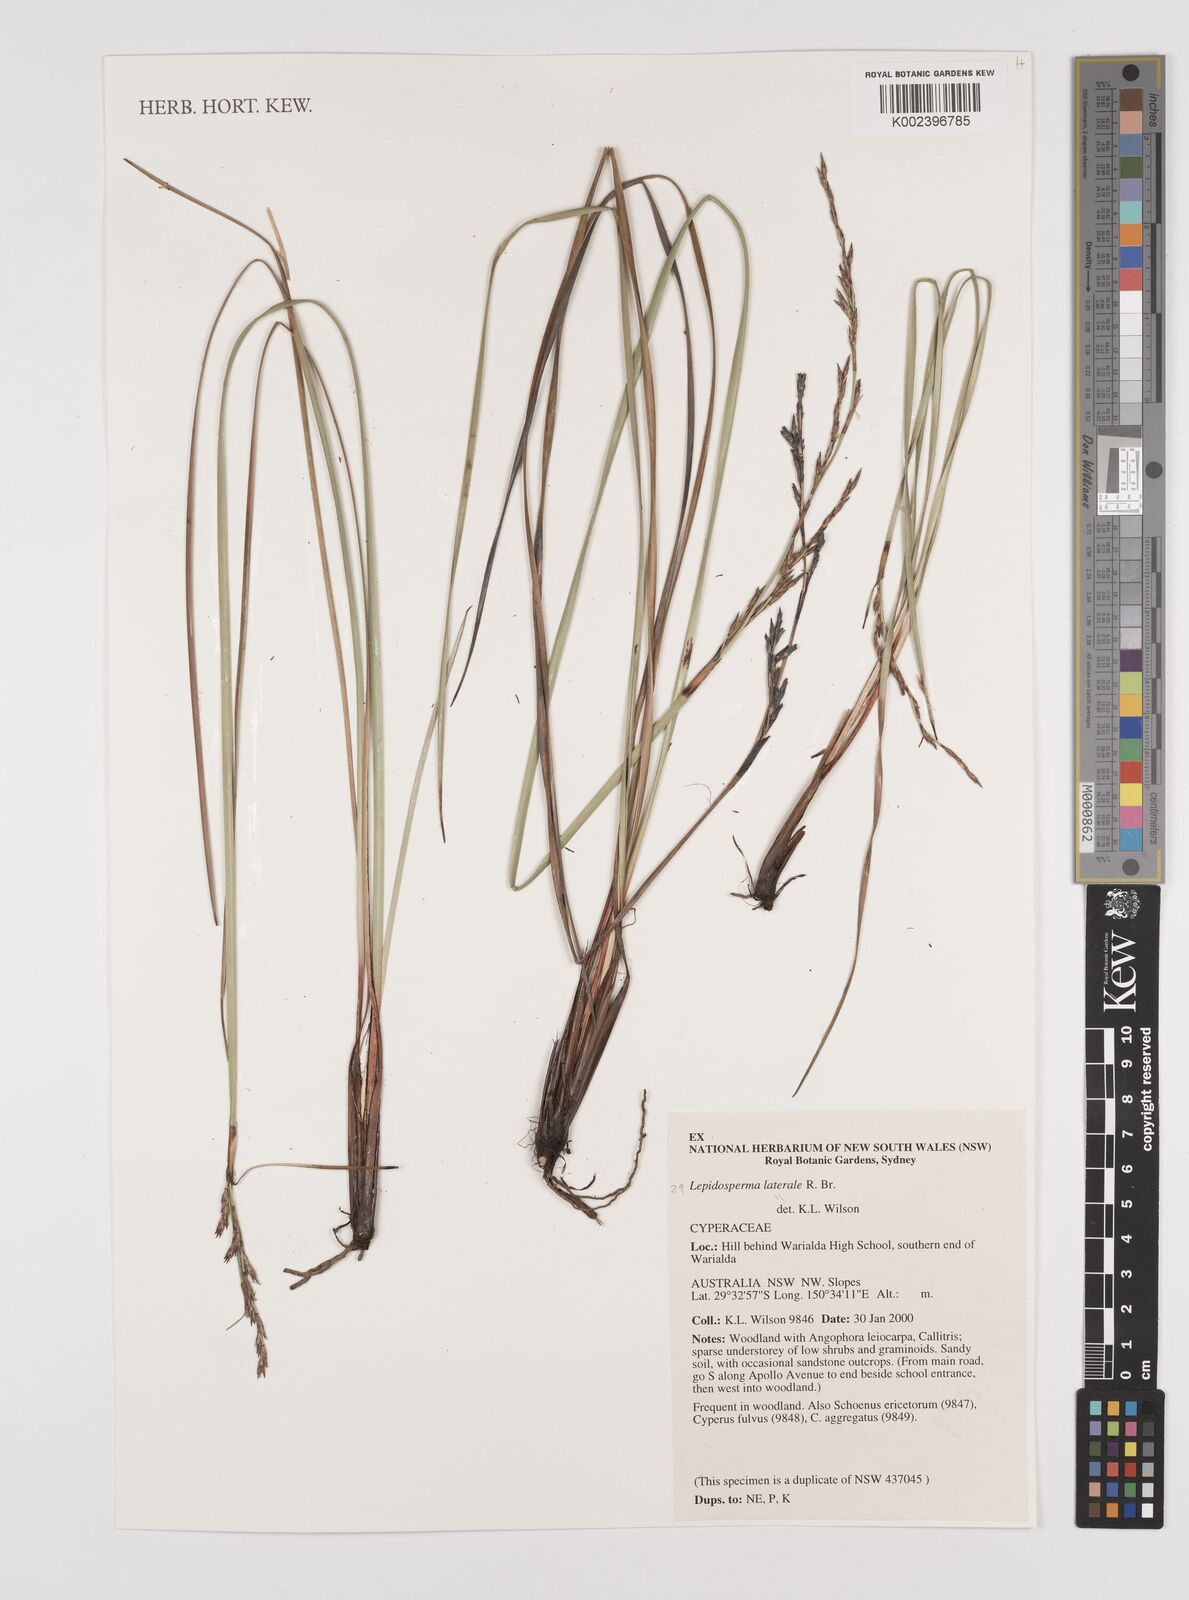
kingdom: Plantae
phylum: Tracheophyta
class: Liliopsida
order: Poales
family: Cyperaceae
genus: Lepidosperma
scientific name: Lepidosperma laterale
